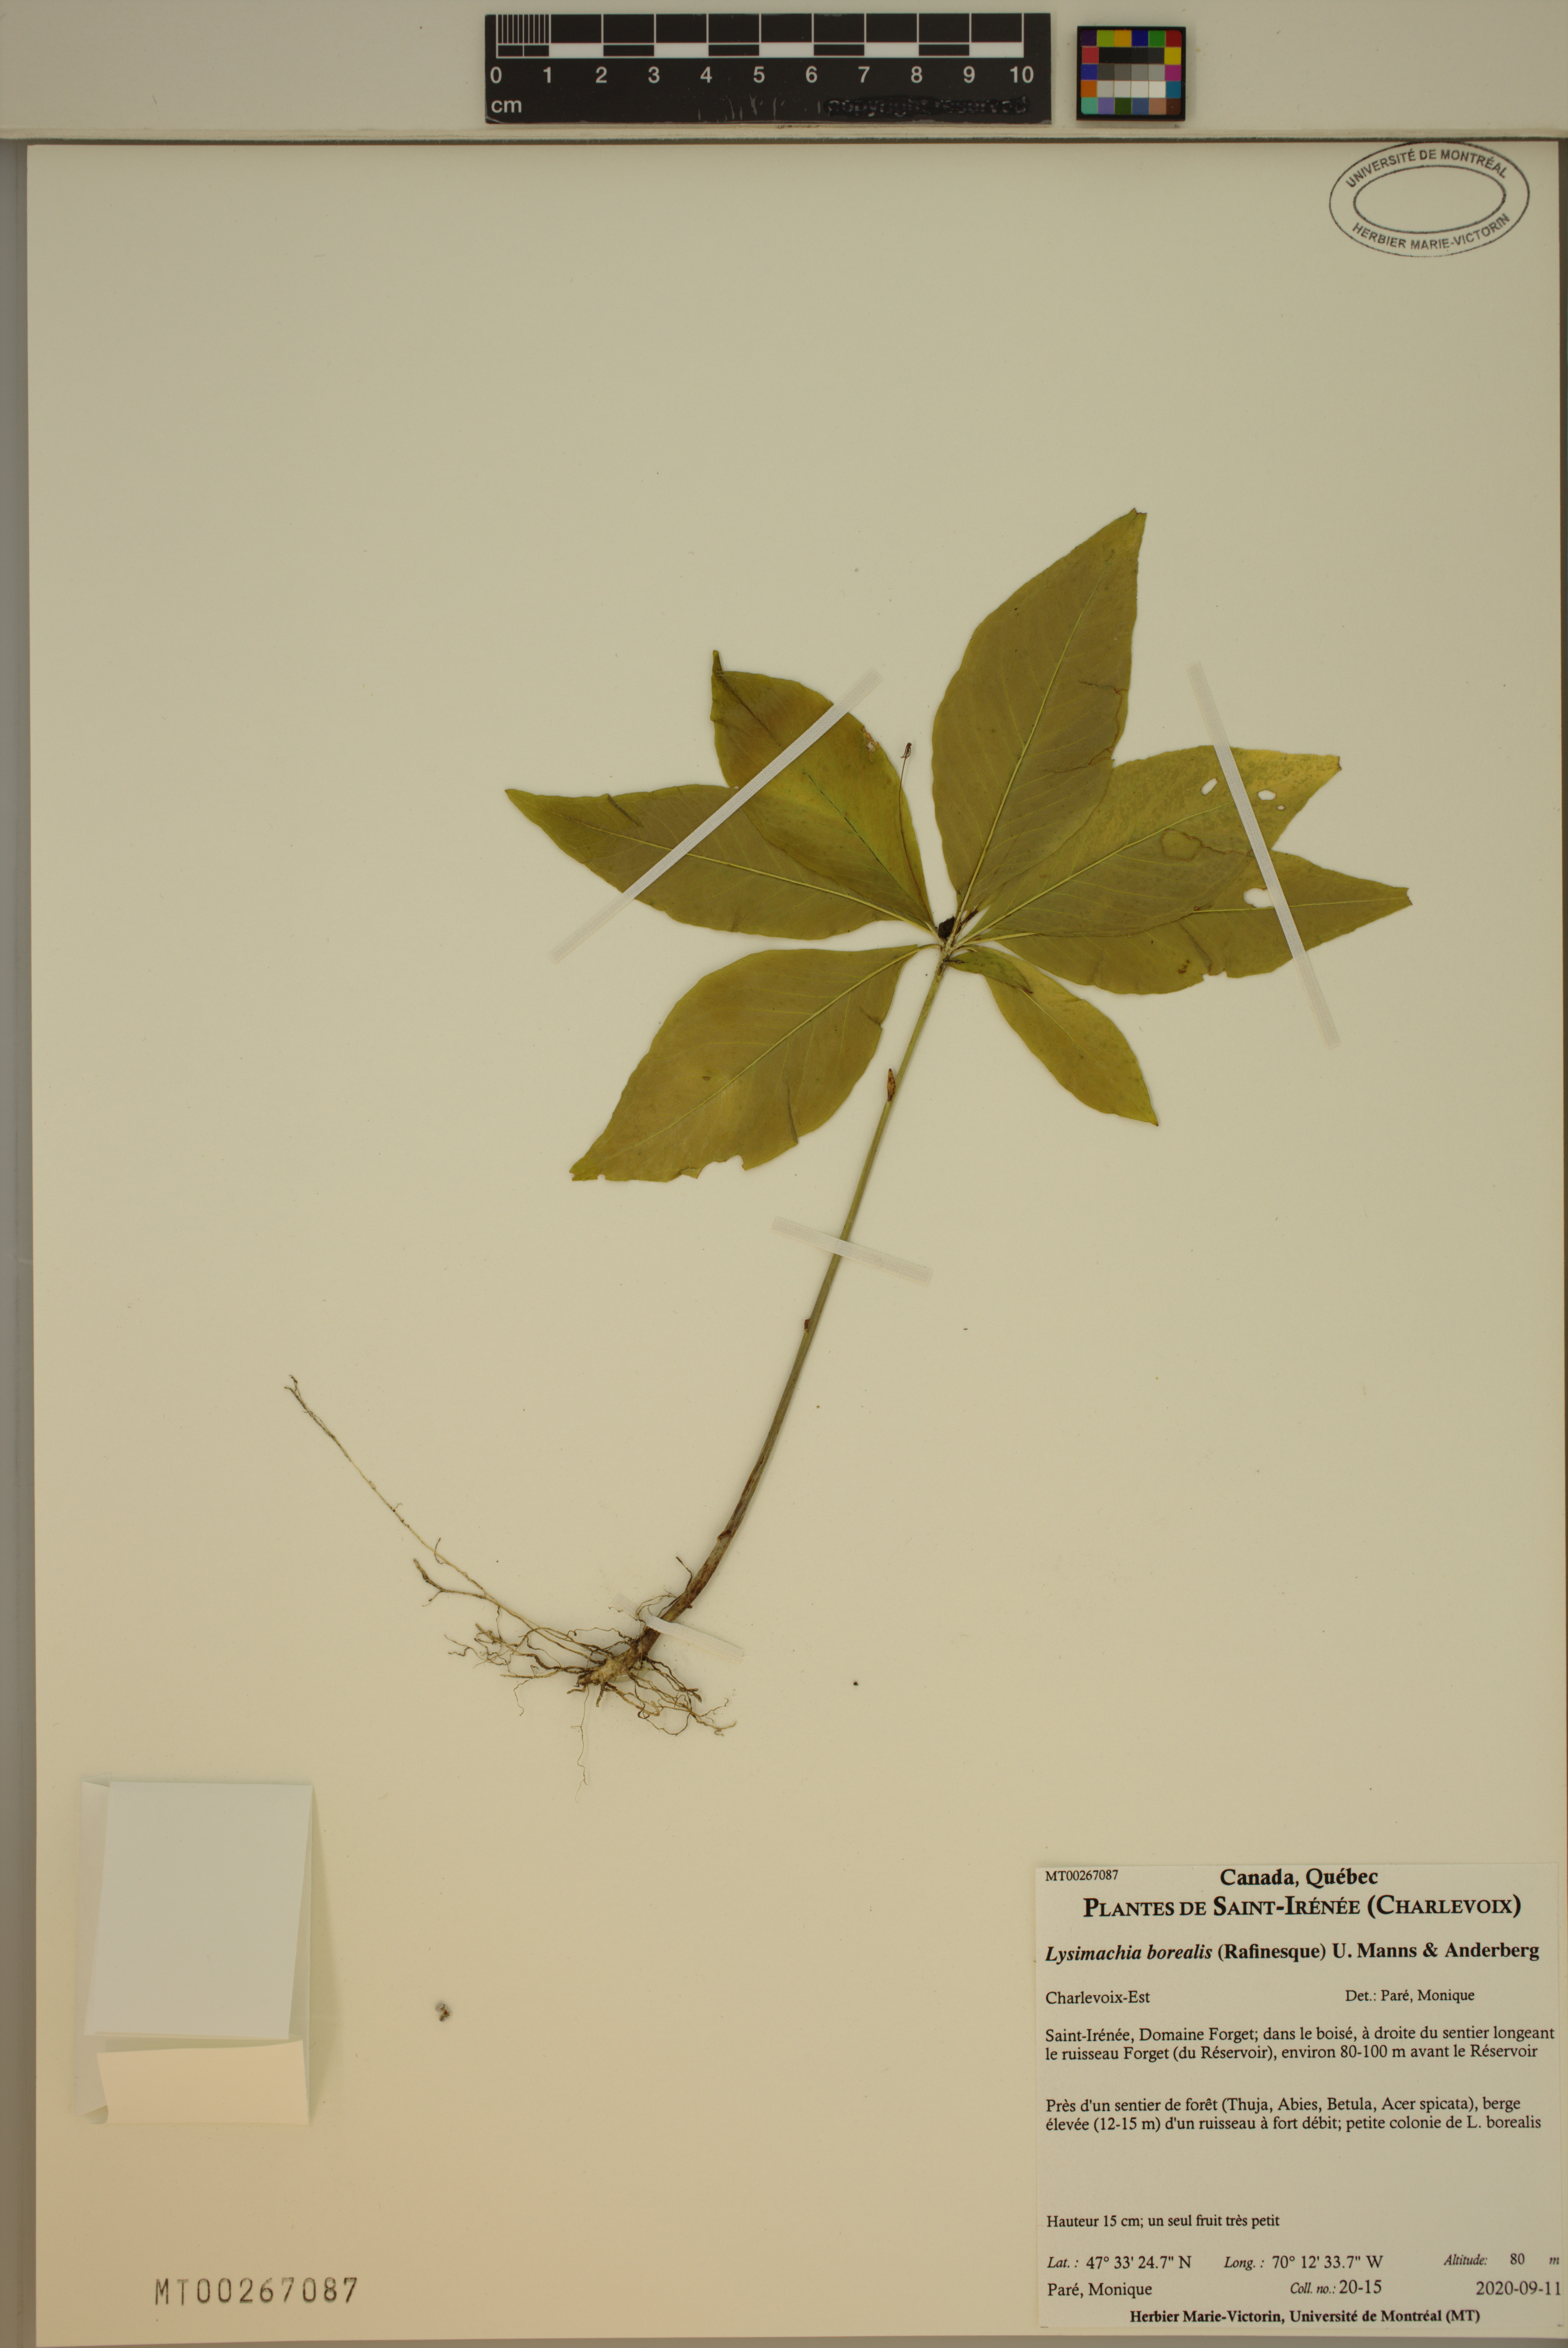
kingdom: Plantae
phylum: Tracheophyta
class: Magnoliopsida
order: Ericales
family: Primulaceae
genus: Lysimachia
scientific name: Lysimachia borealis
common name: American starflower
